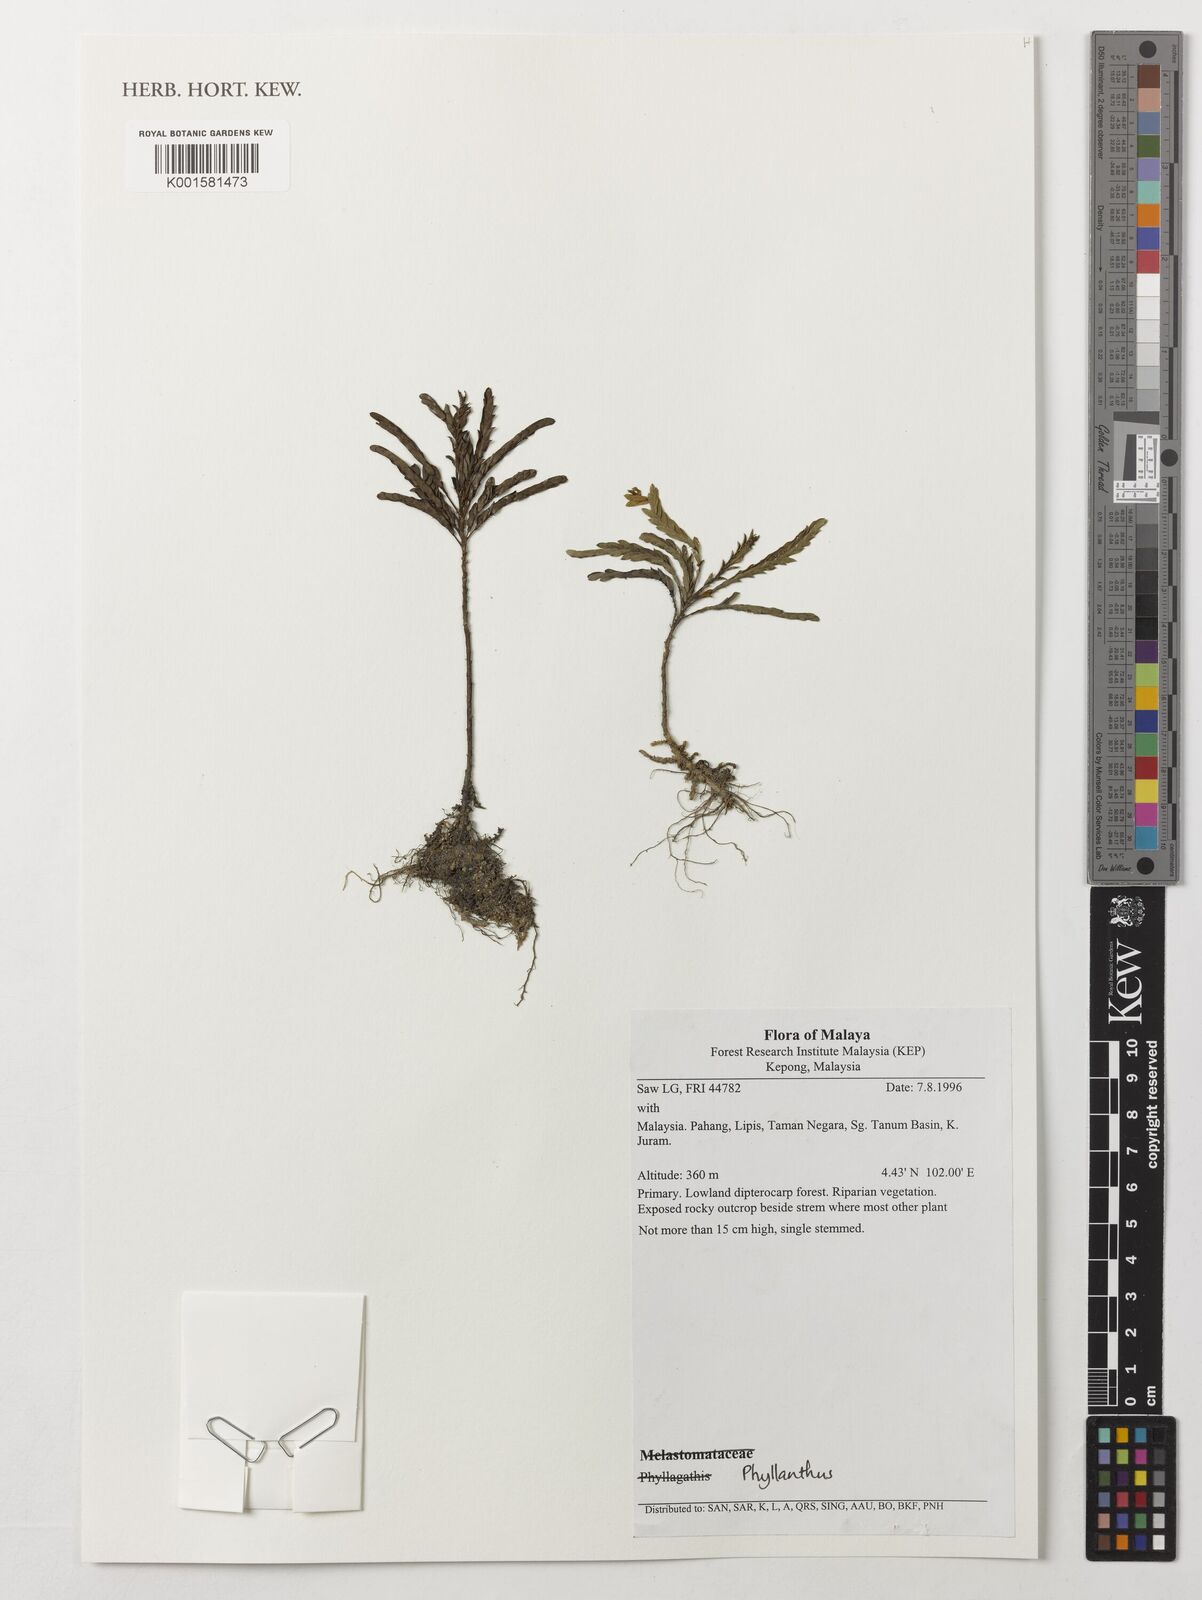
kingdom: Plantae
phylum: Tracheophyta
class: Magnoliopsida
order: Malpighiales
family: Phyllanthaceae
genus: Phyllanthus
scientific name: Phyllanthus
